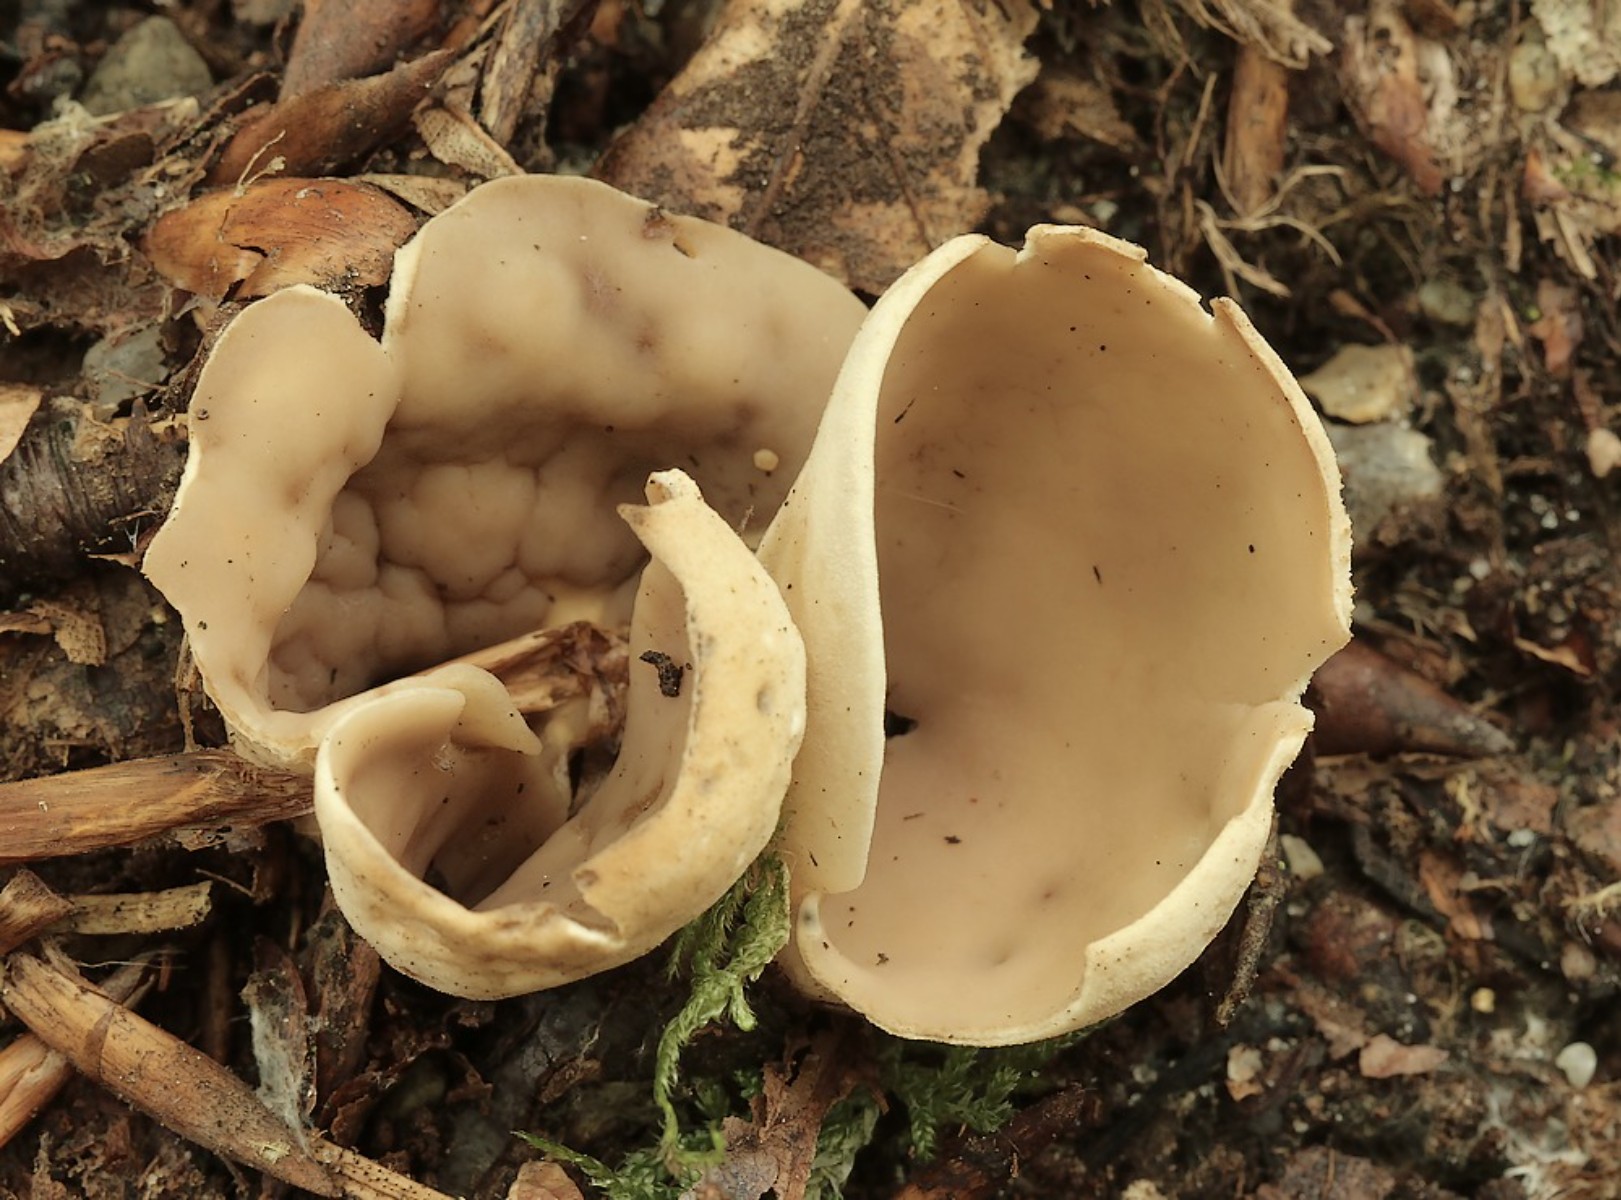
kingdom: Fungi
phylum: Ascomycota
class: Pezizomycetes
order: Pezizales
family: Otideaceae
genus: Otidea
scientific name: Otidea alutacea
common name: læder-ørebæger
